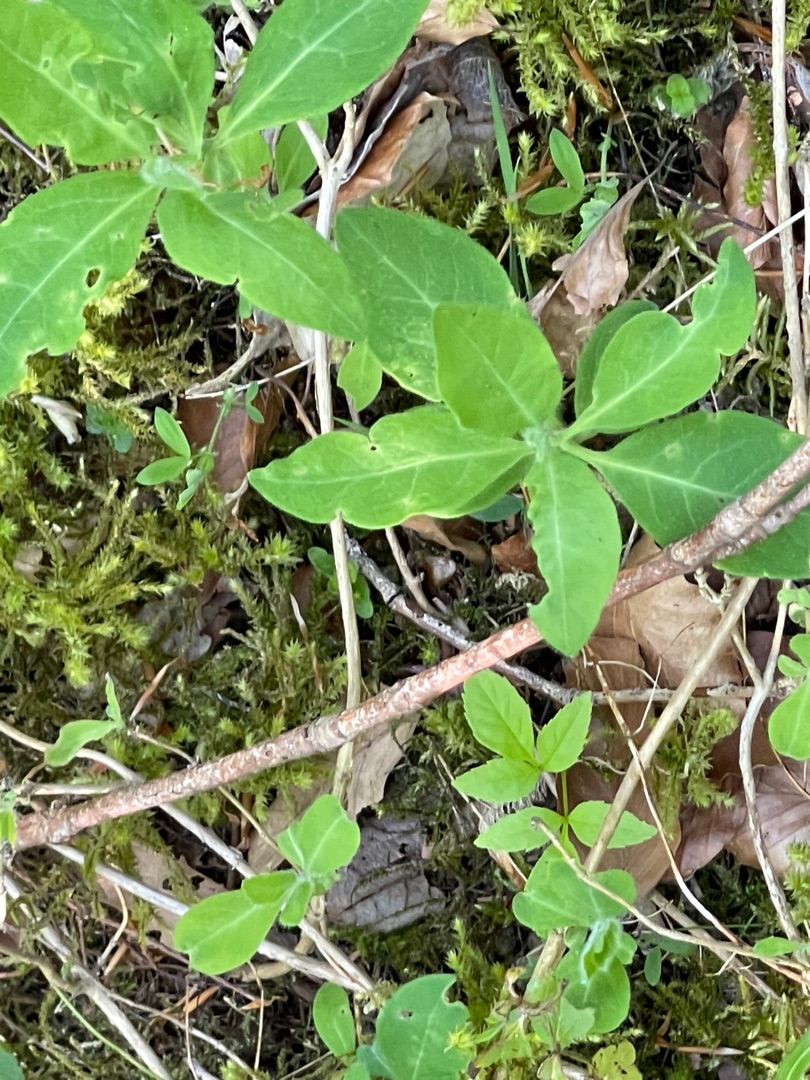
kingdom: Plantae
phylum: Tracheophyta
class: Magnoliopsida
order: Dipsacales
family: Caprifoliaceae
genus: Lonicera
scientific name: Lonicera periclymenum
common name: Almindelig gedeblad
